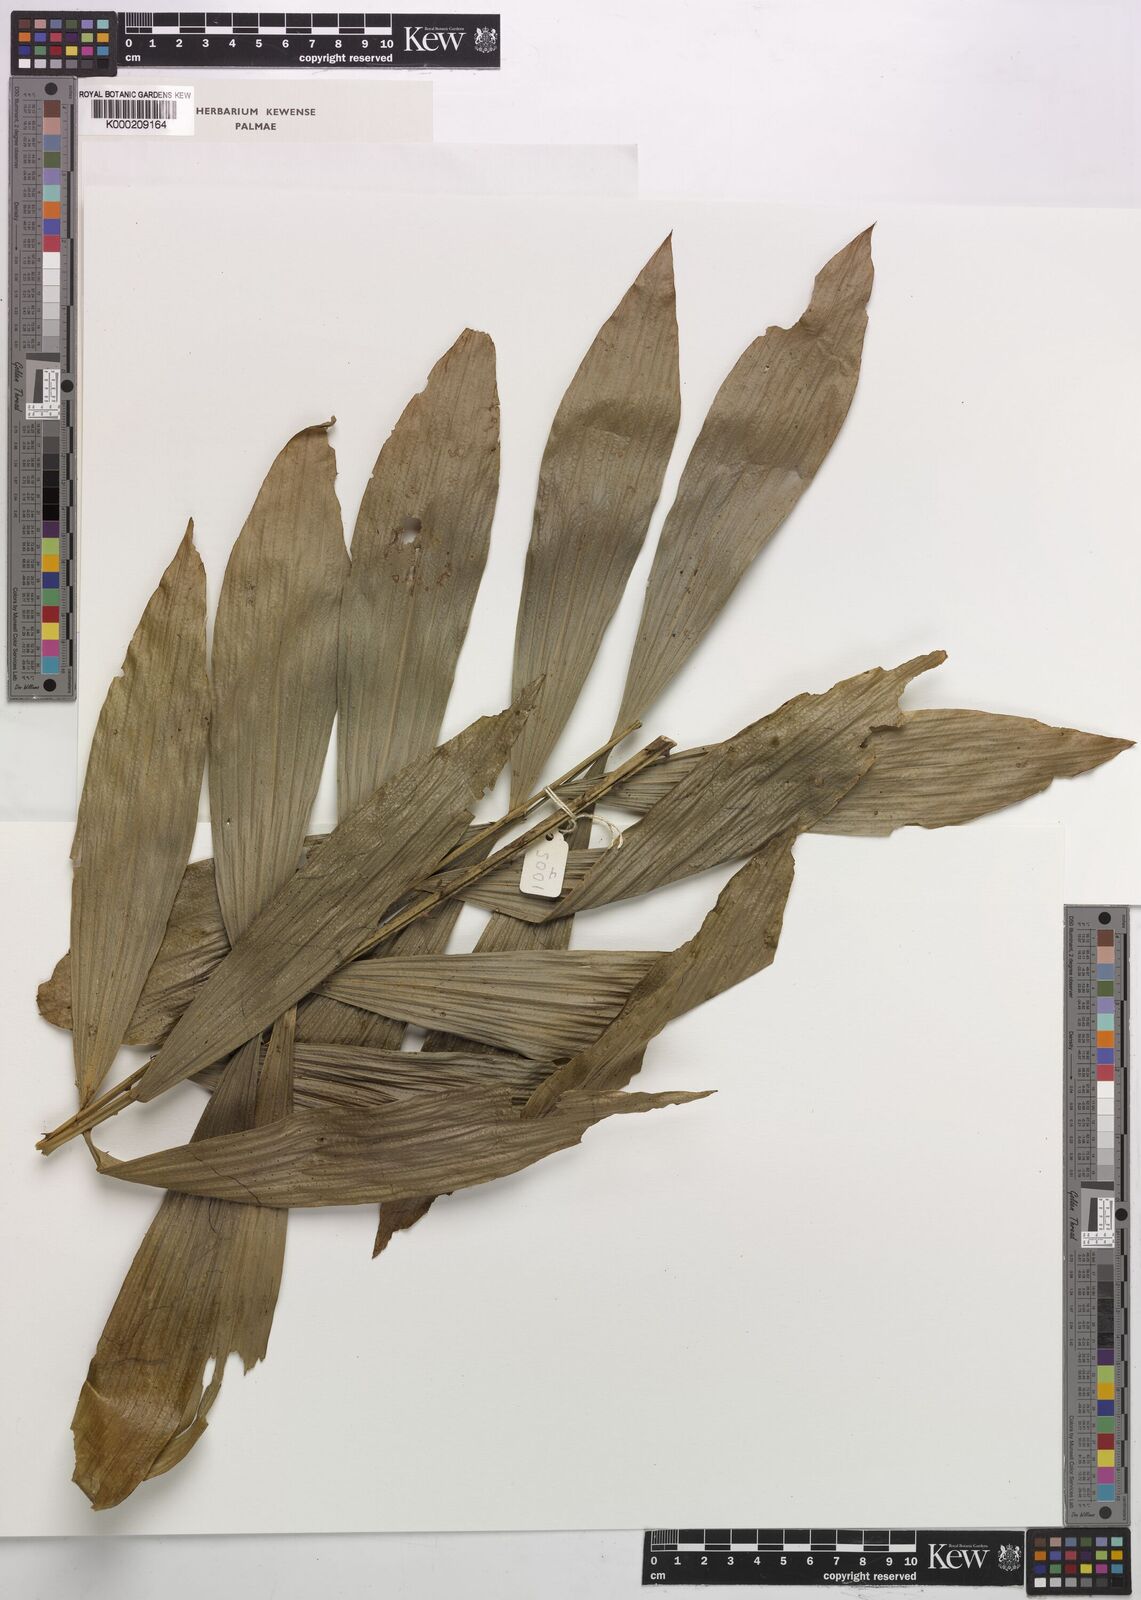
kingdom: Plantae
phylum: Tracheophyta
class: Liliopsida
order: Arecales
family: Arecaceae
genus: Eremospatha
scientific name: Eremospatha hookeri
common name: Rattan
